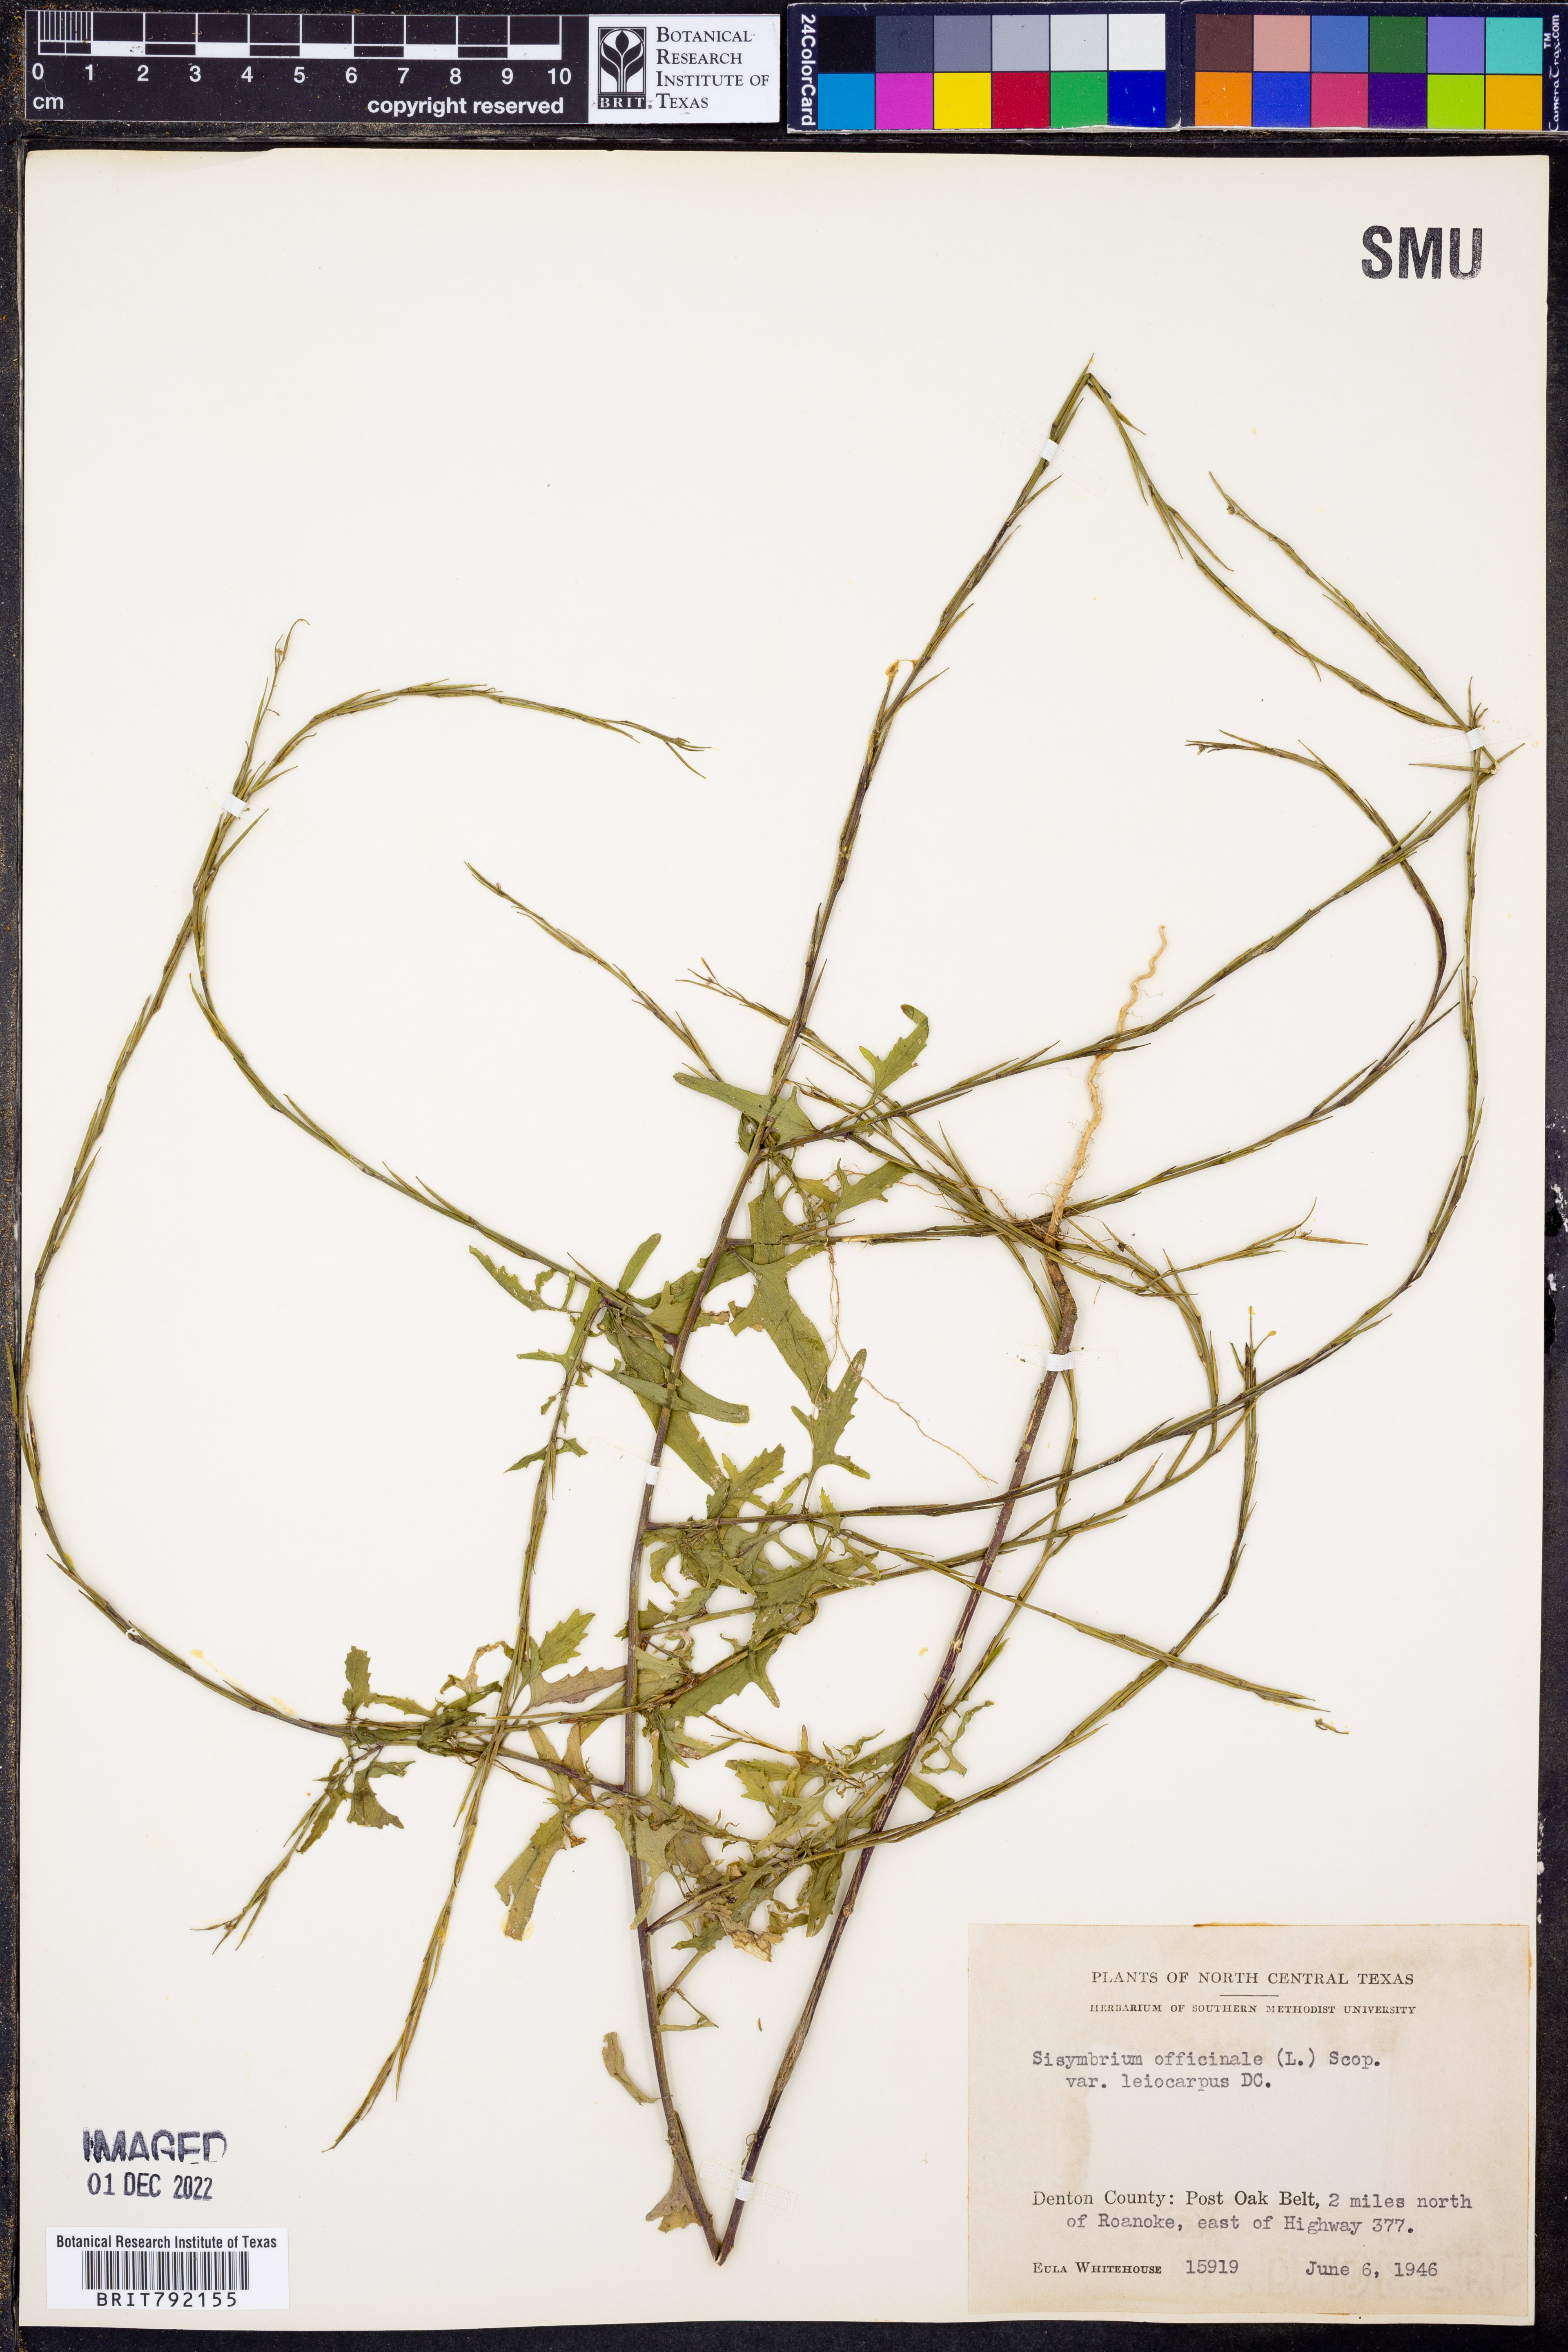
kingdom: Plantae
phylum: Tracheophyta
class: Magnoliopsida
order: Brassicales
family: Brassicaceae
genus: Sisymbrium
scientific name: Sisymbrium officinale
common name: Hedge mustard
